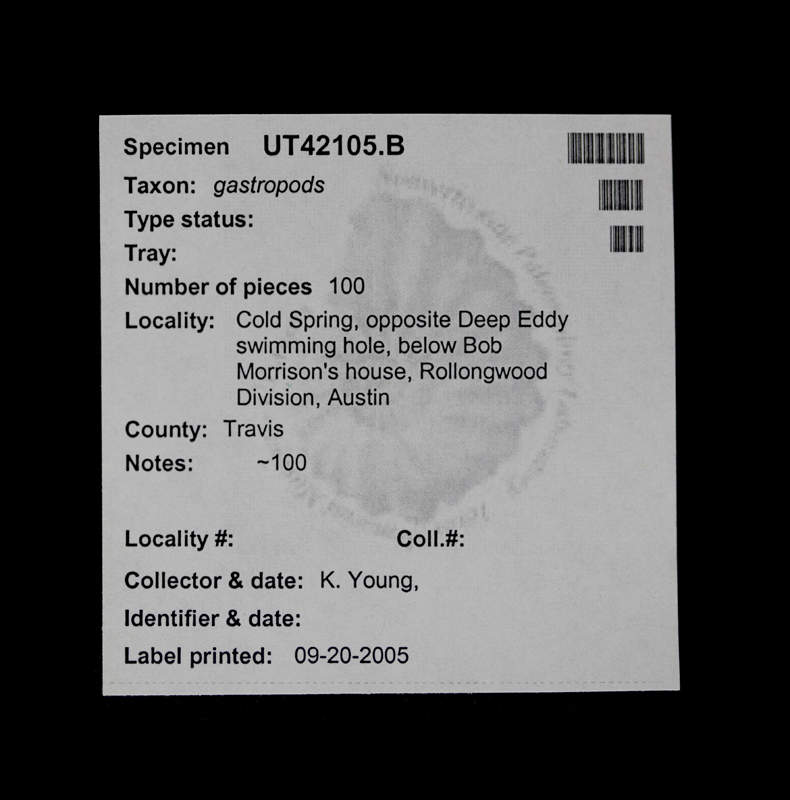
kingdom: Animalia
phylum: Mollusca
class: Gastropoda
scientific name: Gastropoda
